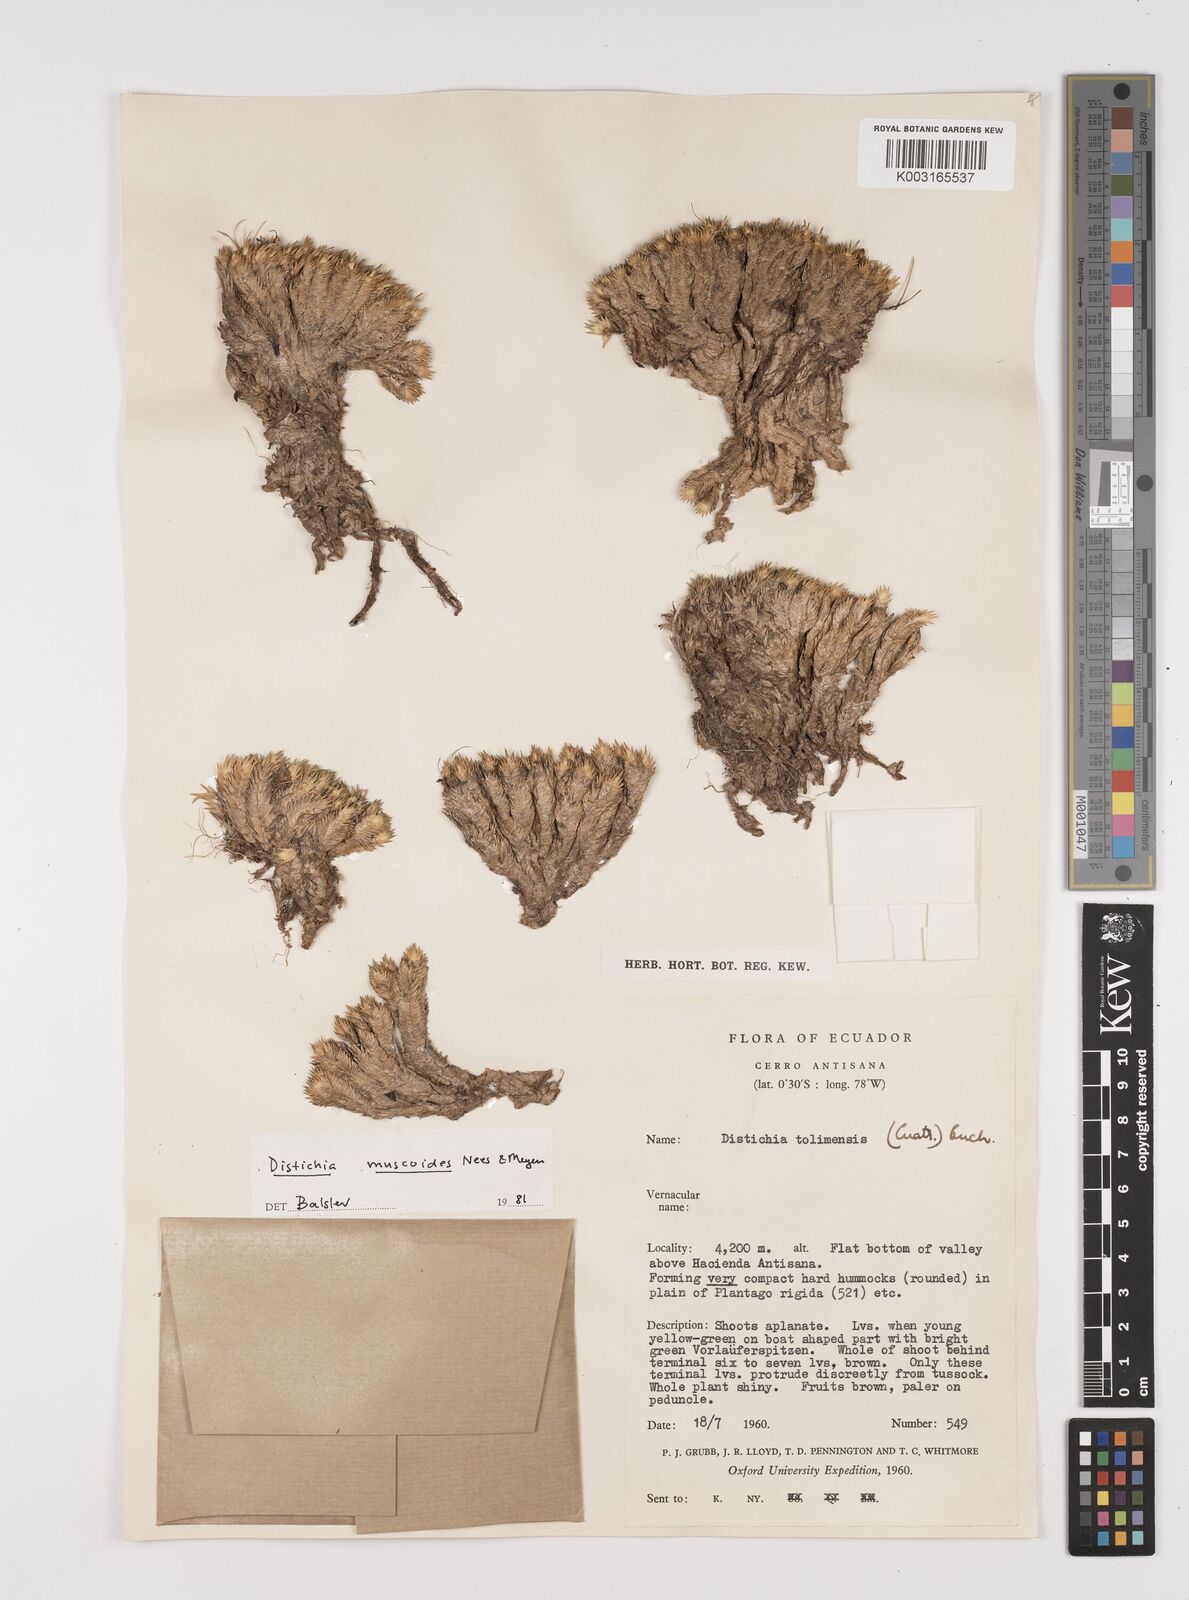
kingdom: Plantae
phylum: Tracheophyta
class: Liliopsida
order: Poales
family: Juncaceae
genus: Distichia
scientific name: Distichia muscoides
